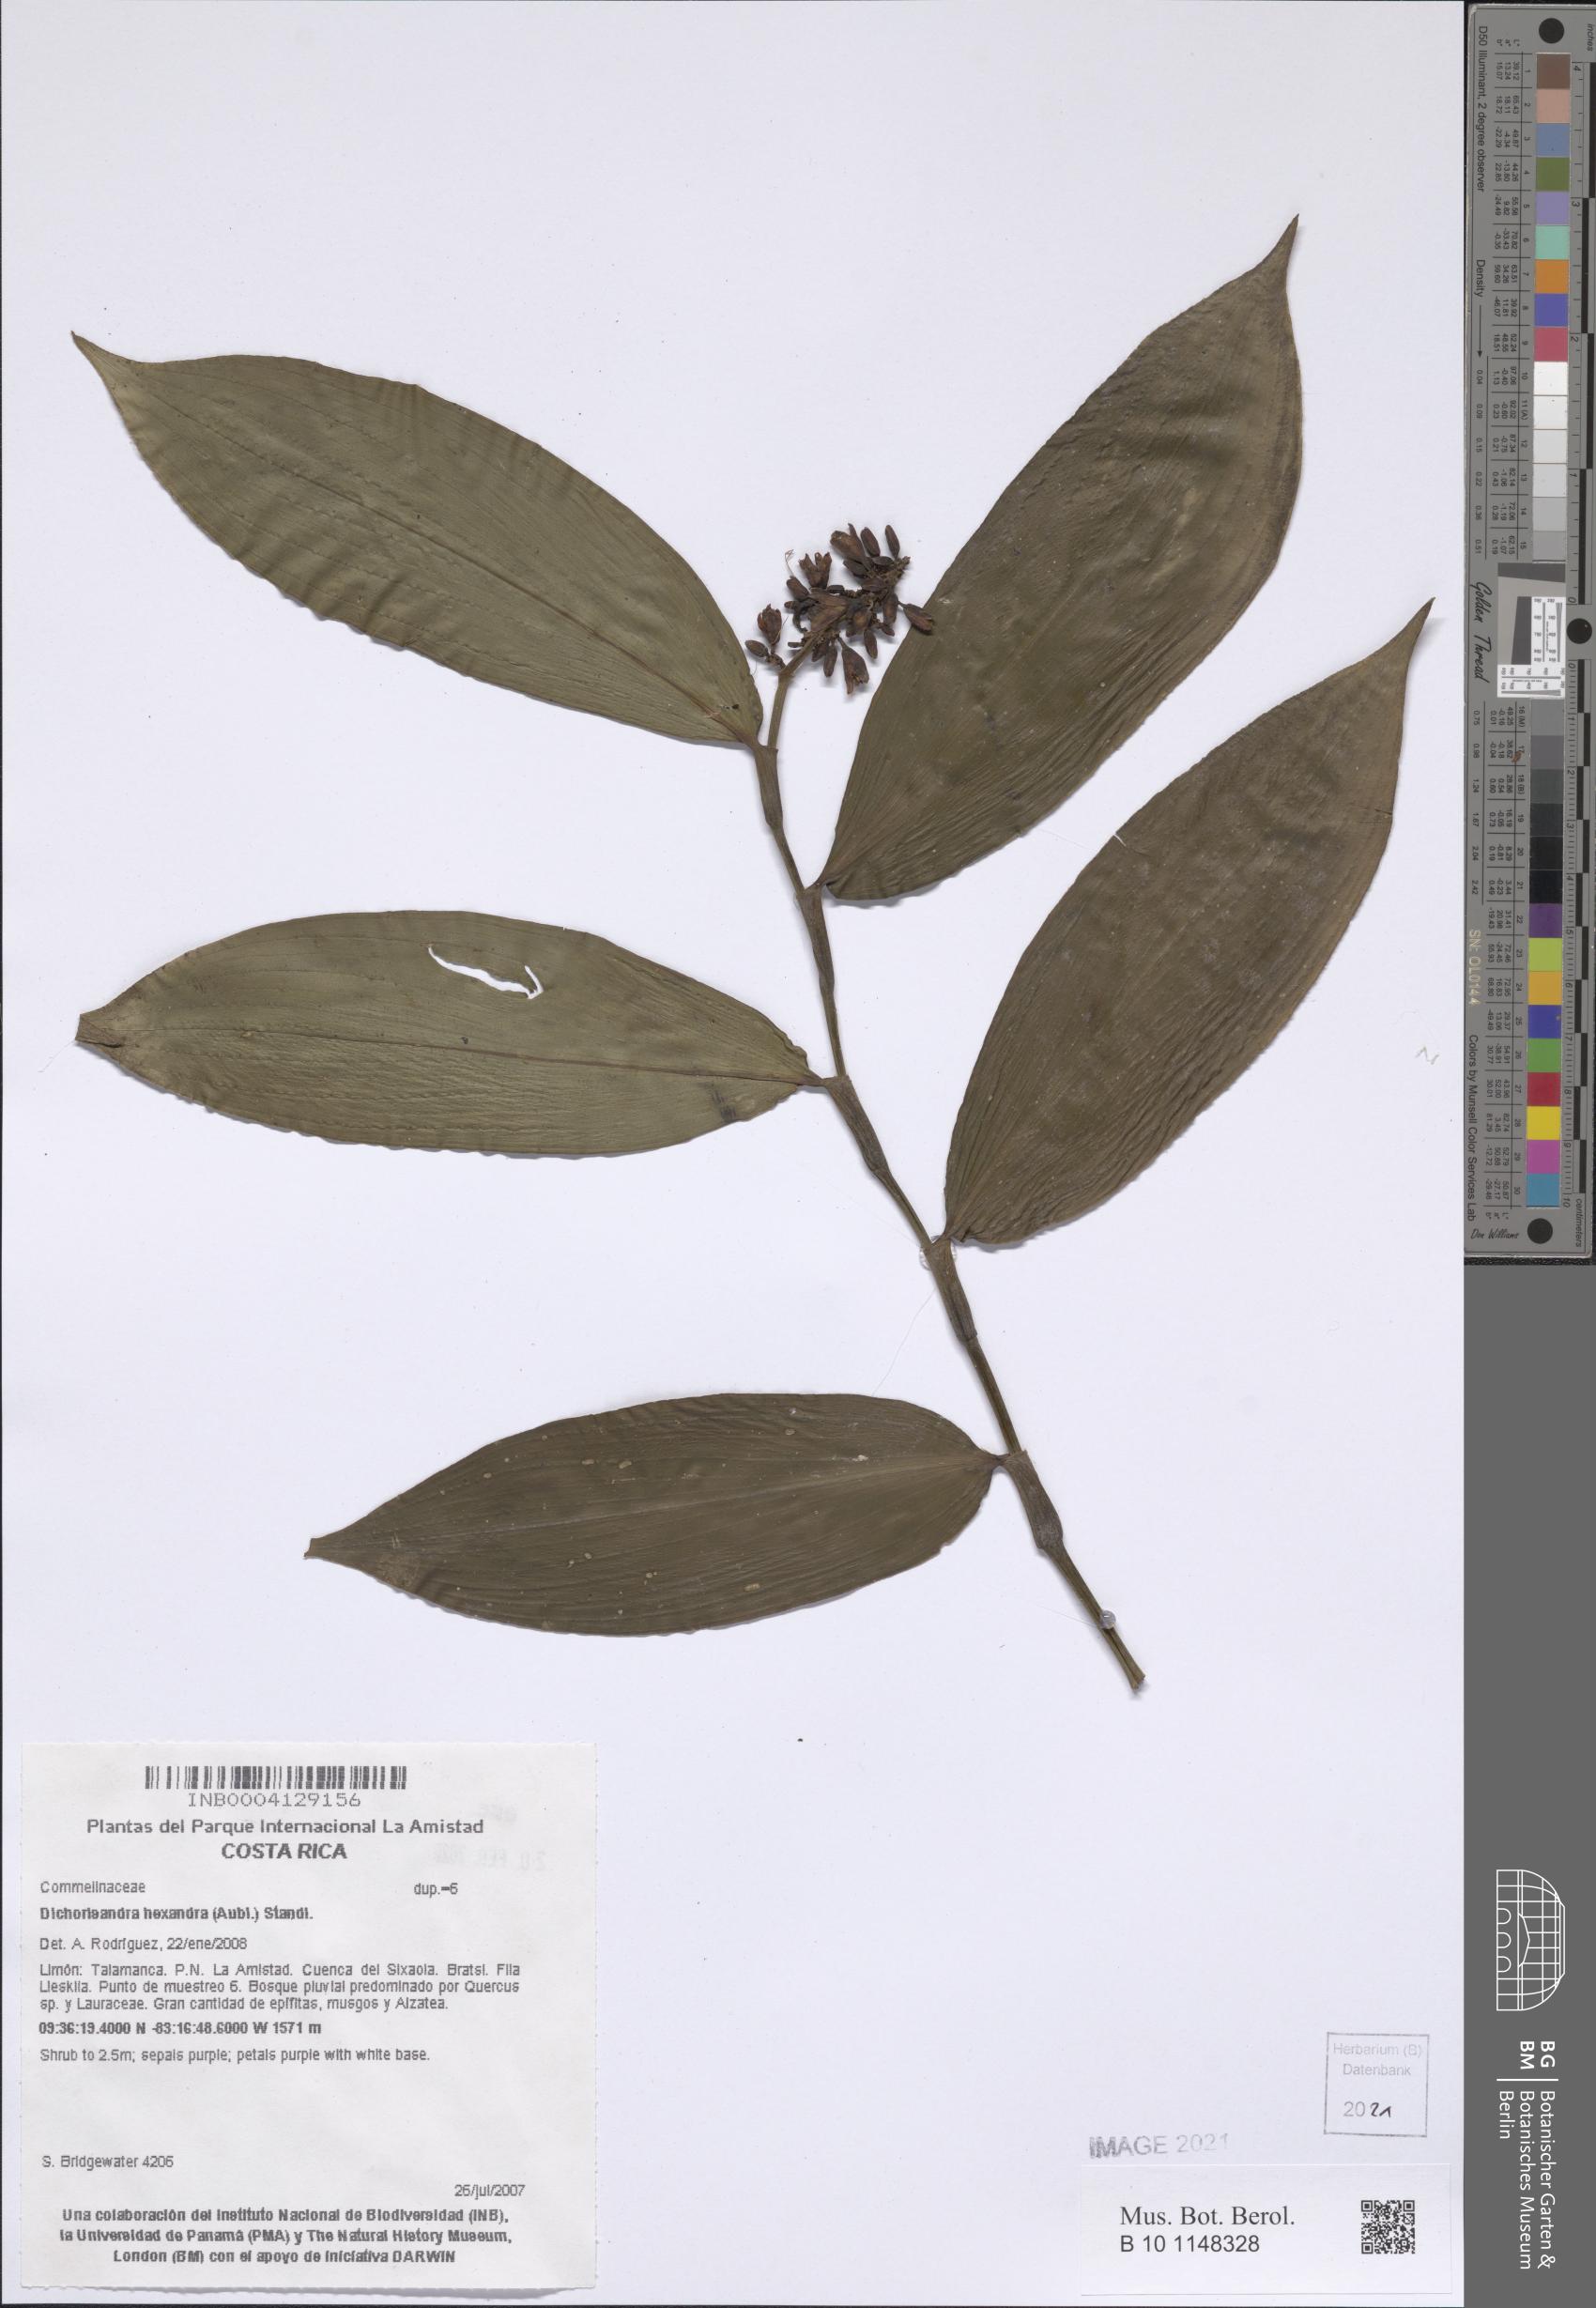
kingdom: Plantae
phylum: Tracheophyta
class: Magnoliopsida
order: Rosales
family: Rosaceae
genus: Prunus
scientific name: Prunus
